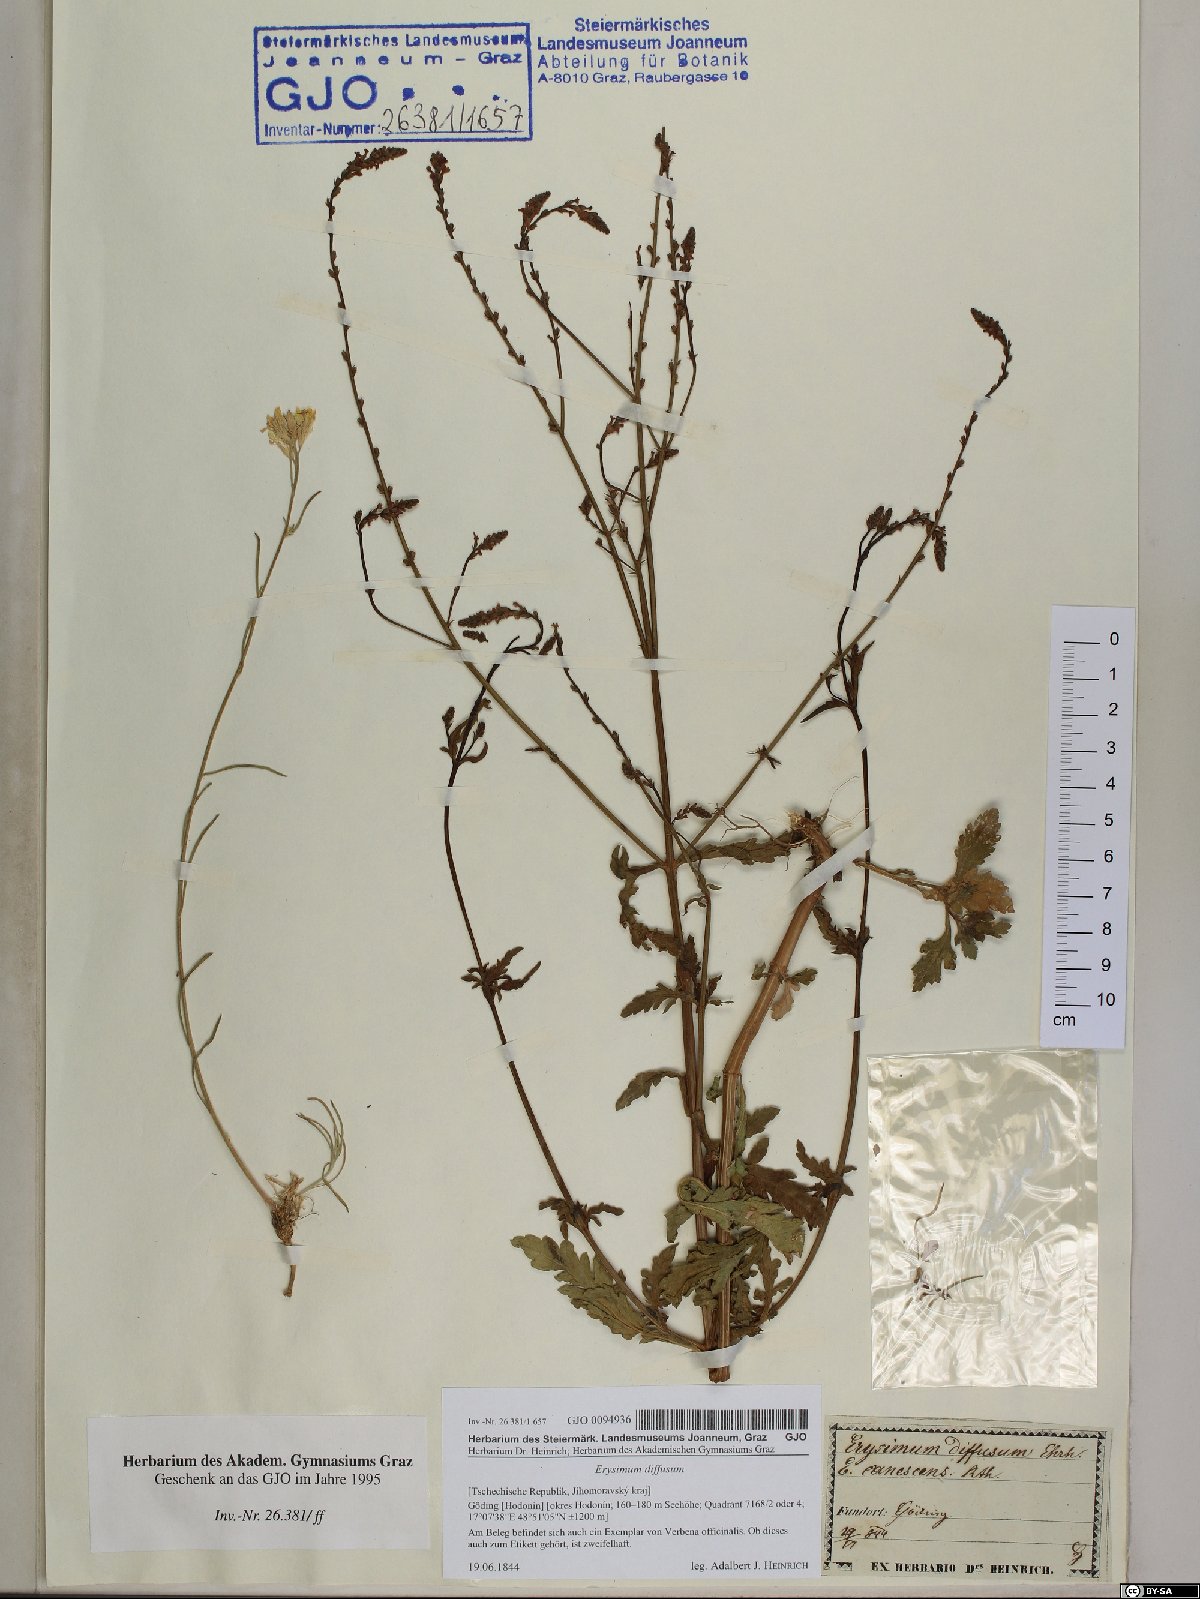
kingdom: Plantae
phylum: Tracheophyta
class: Magnoliopsida
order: Brassicales
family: Brassicaceae
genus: Erysimum
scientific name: Erysimum diffusum
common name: Diffuse wallflower
